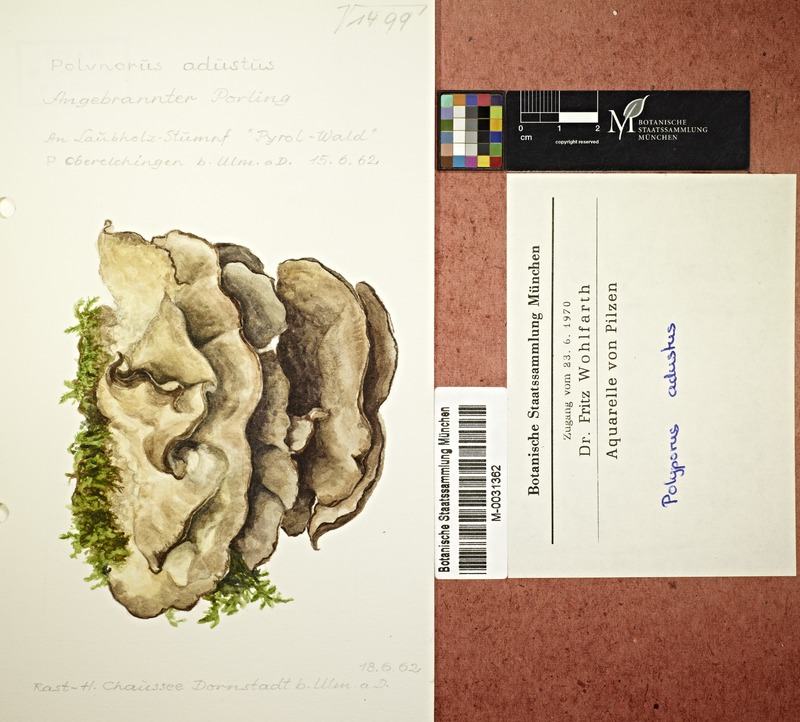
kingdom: Fungi
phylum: Basidiomycota
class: Agaricomycetes
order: Polyporales
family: Phanerochaetaceae
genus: Bjerkandera
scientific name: Bjerkandera adusta
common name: Smoky bracket
